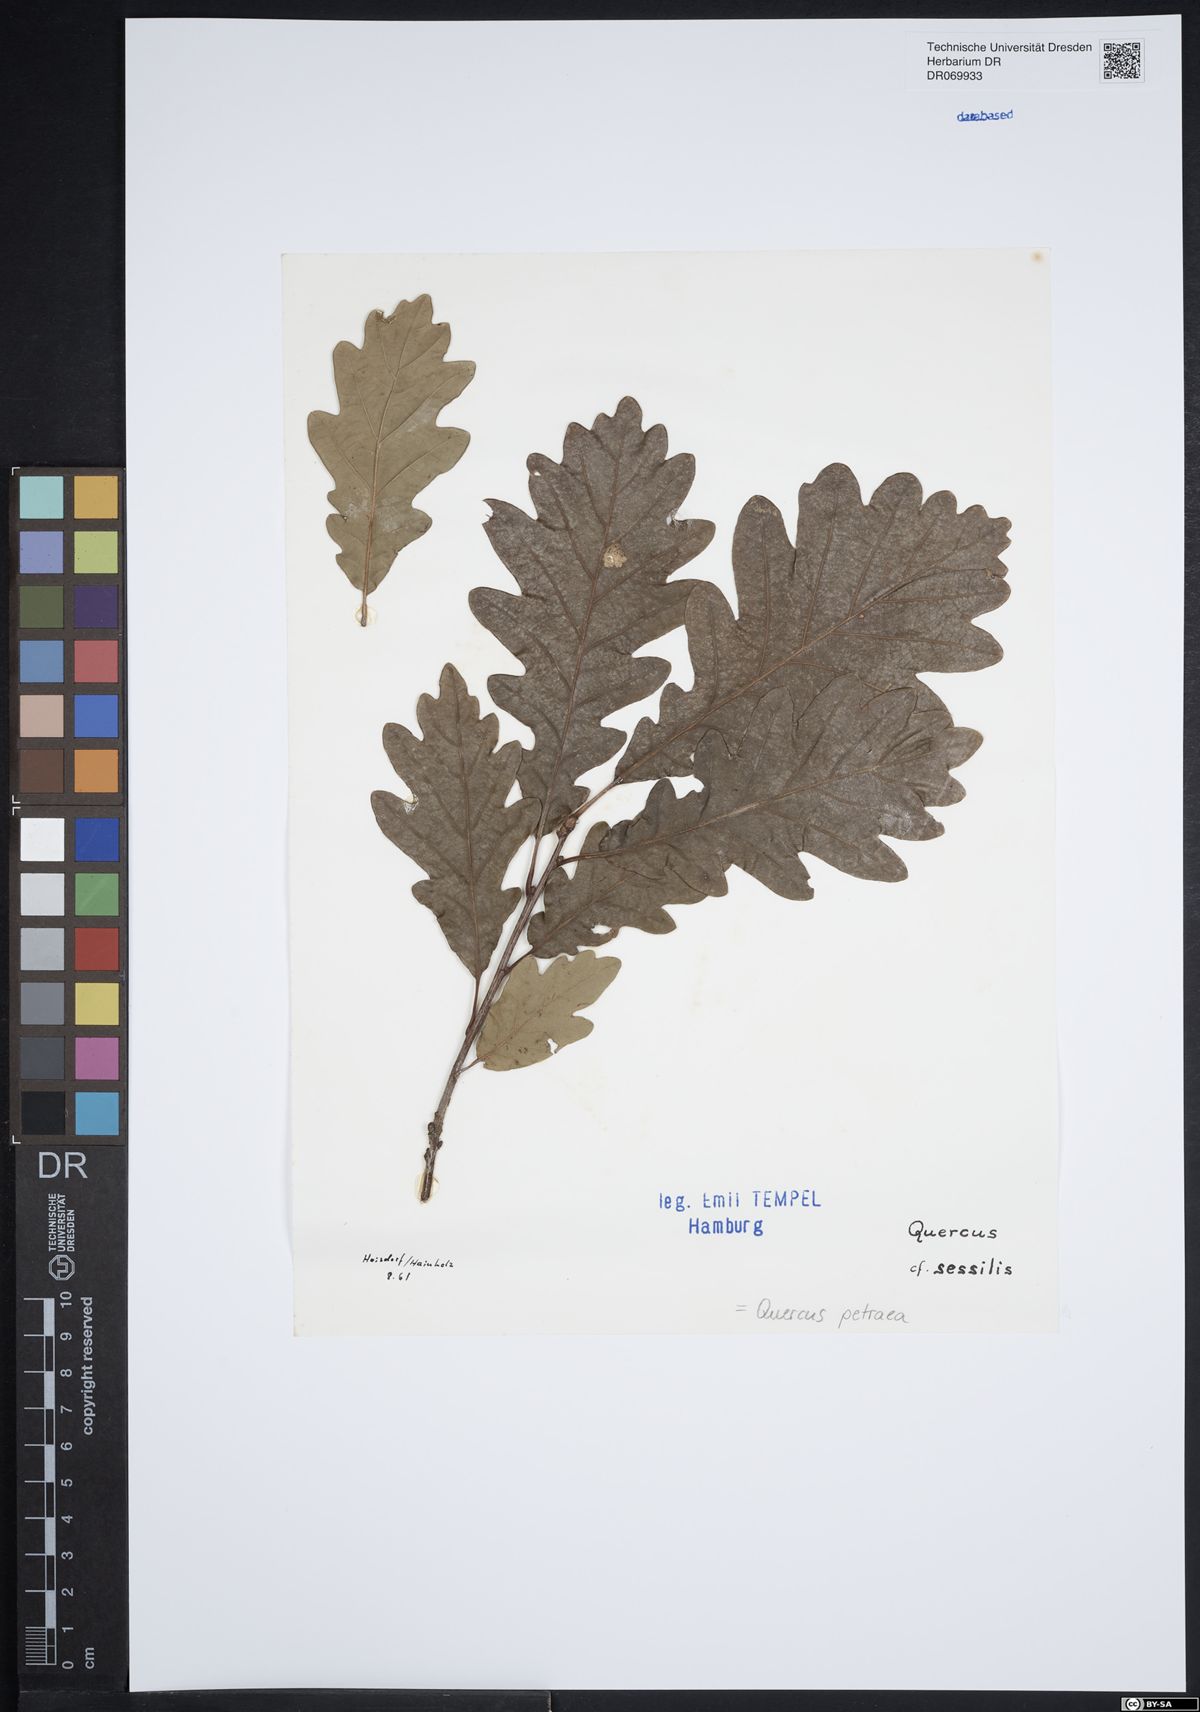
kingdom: Plantae
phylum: Tracheophyta
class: Magnoliopsida
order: Fagales
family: Fagaceae
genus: Quercus
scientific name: Quercus petraea
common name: Sessile oak
